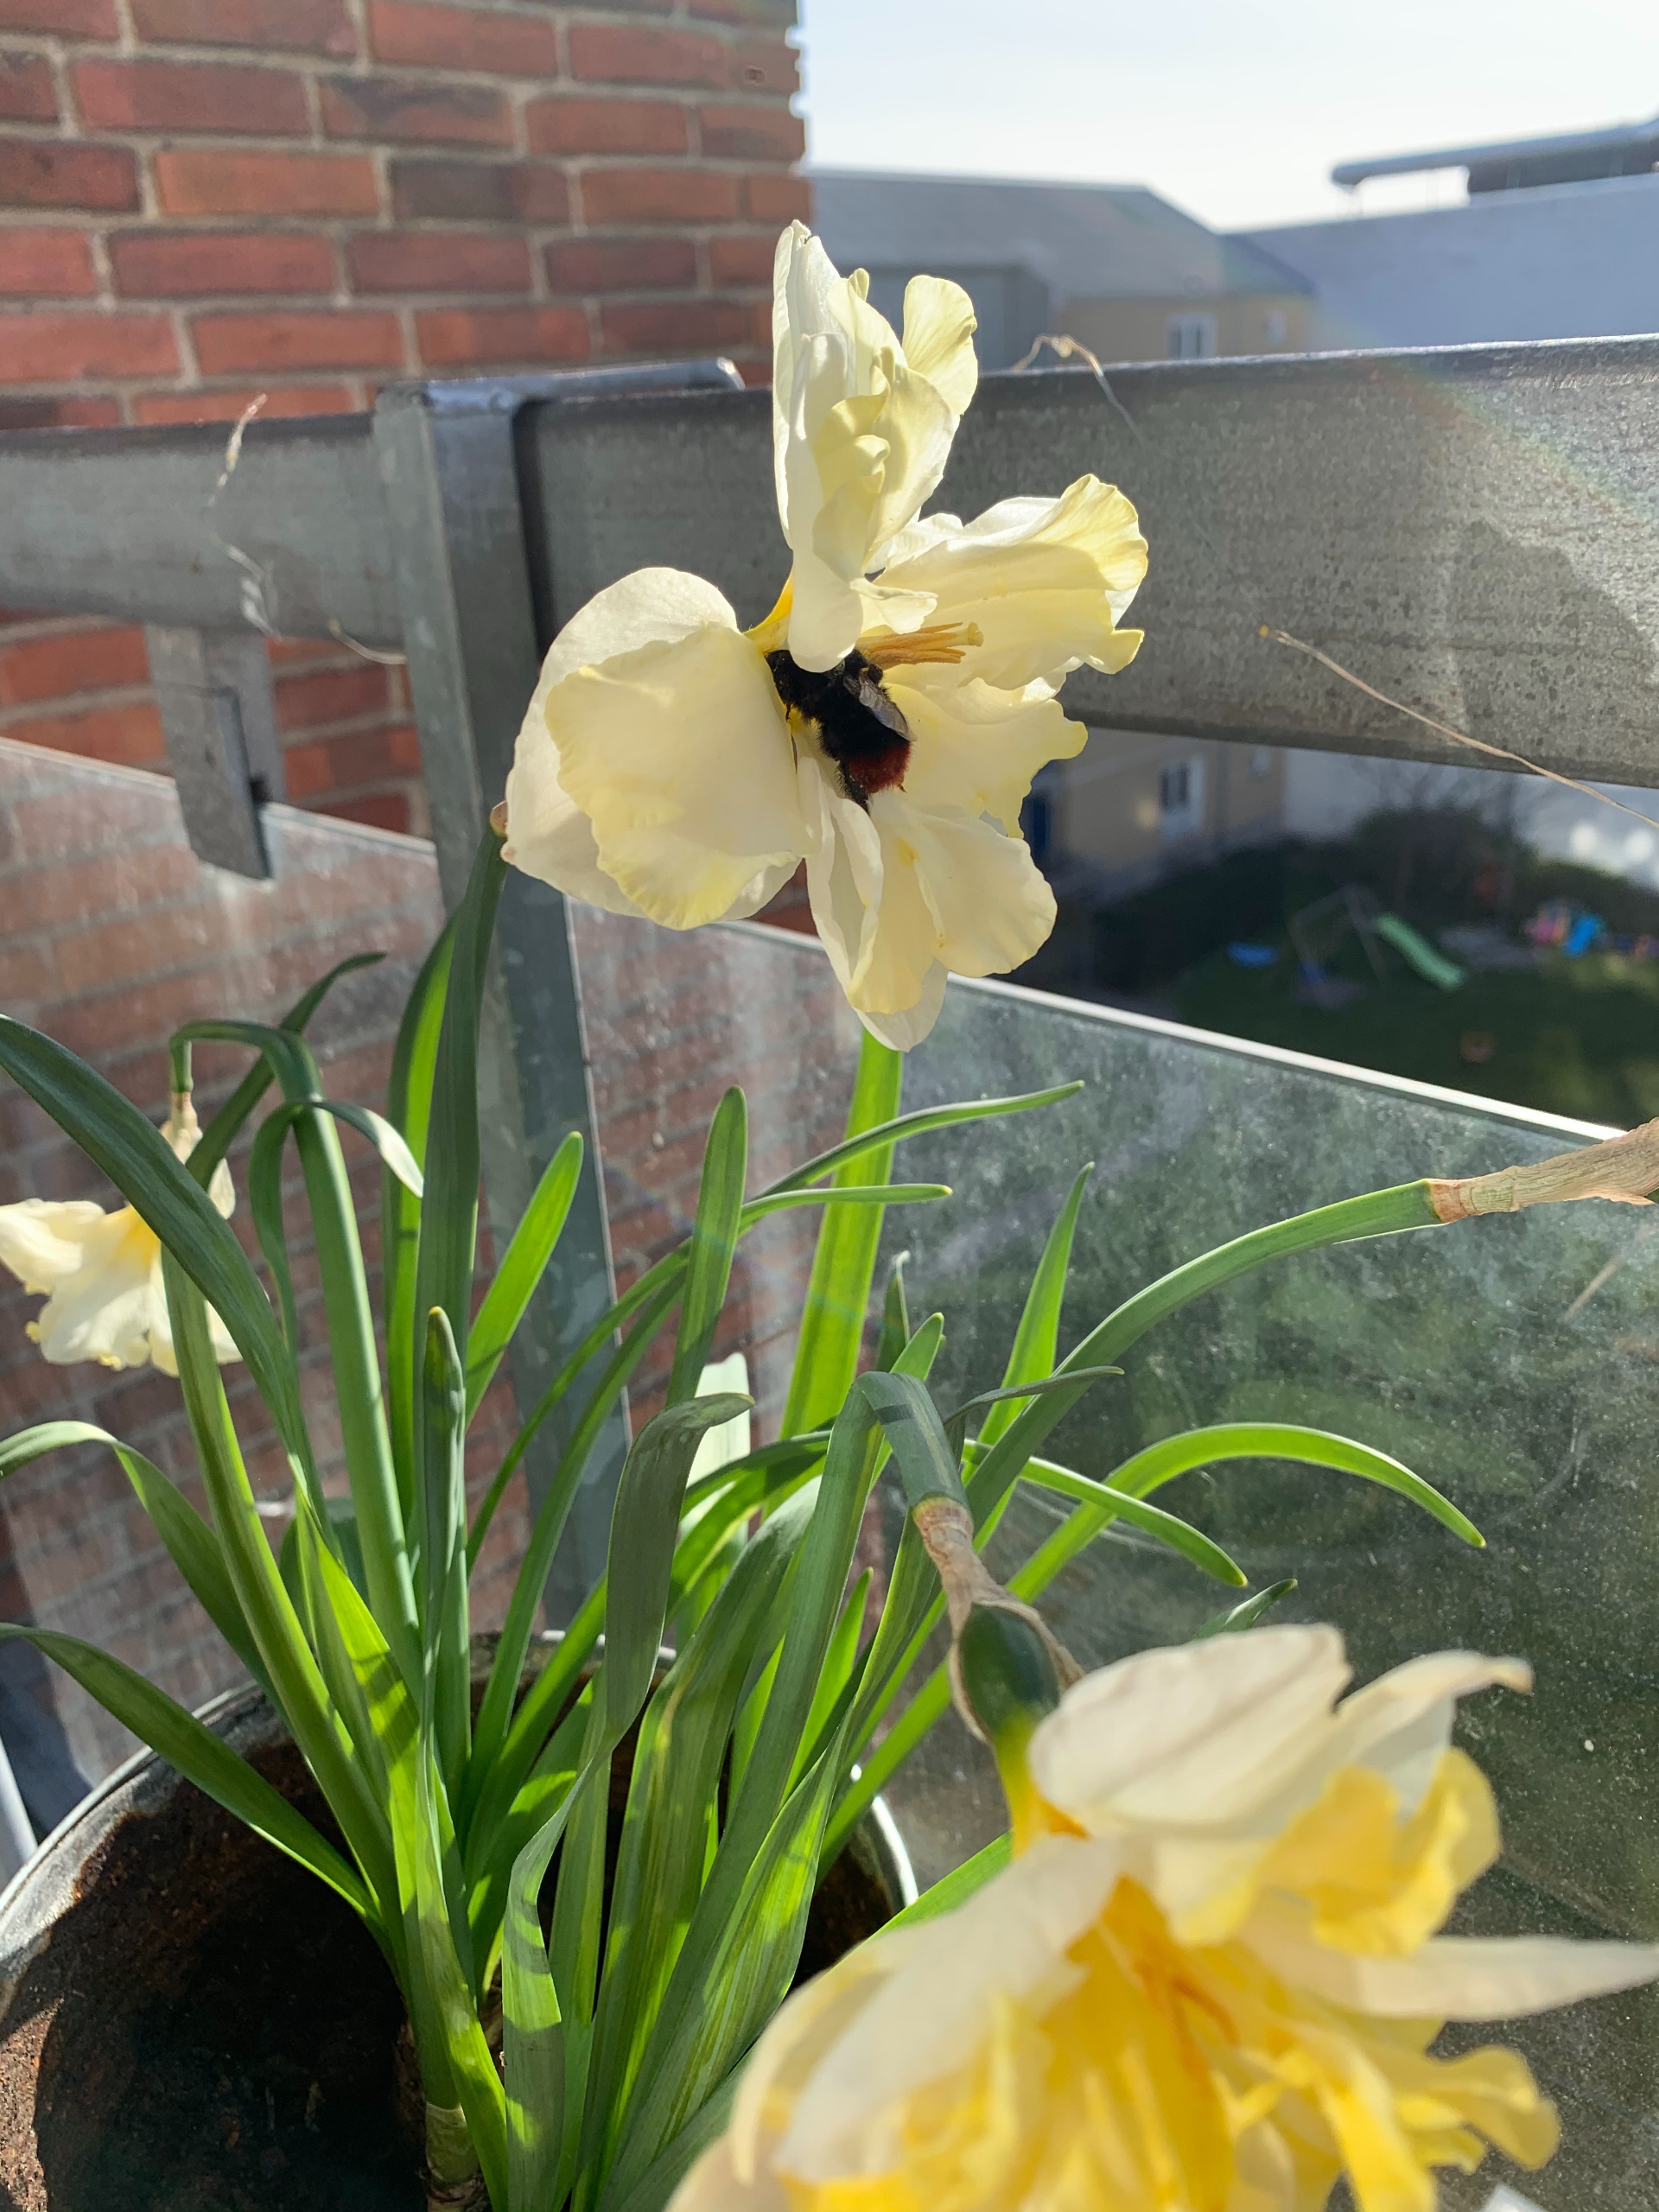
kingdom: Animalia
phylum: Arthropoda
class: Insecta
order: Hymenoptera
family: Apidae
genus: Bombus
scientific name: Bombus lapidarius
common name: Stenhumle
